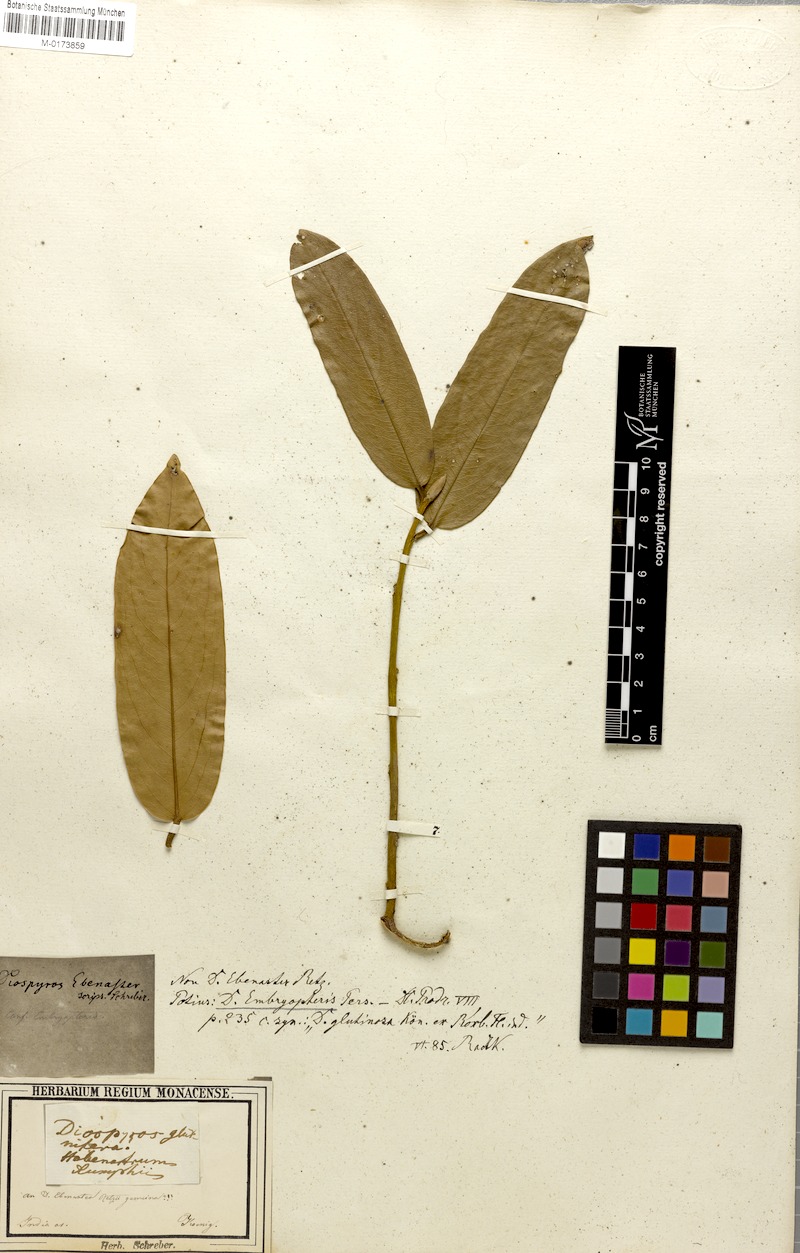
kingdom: Plantae
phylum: Tracheophyta
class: Magnoliopsida
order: Ericales
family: Ebenaceae
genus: Diospyros
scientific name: Diospyros malabarica
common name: Mountain ebony
